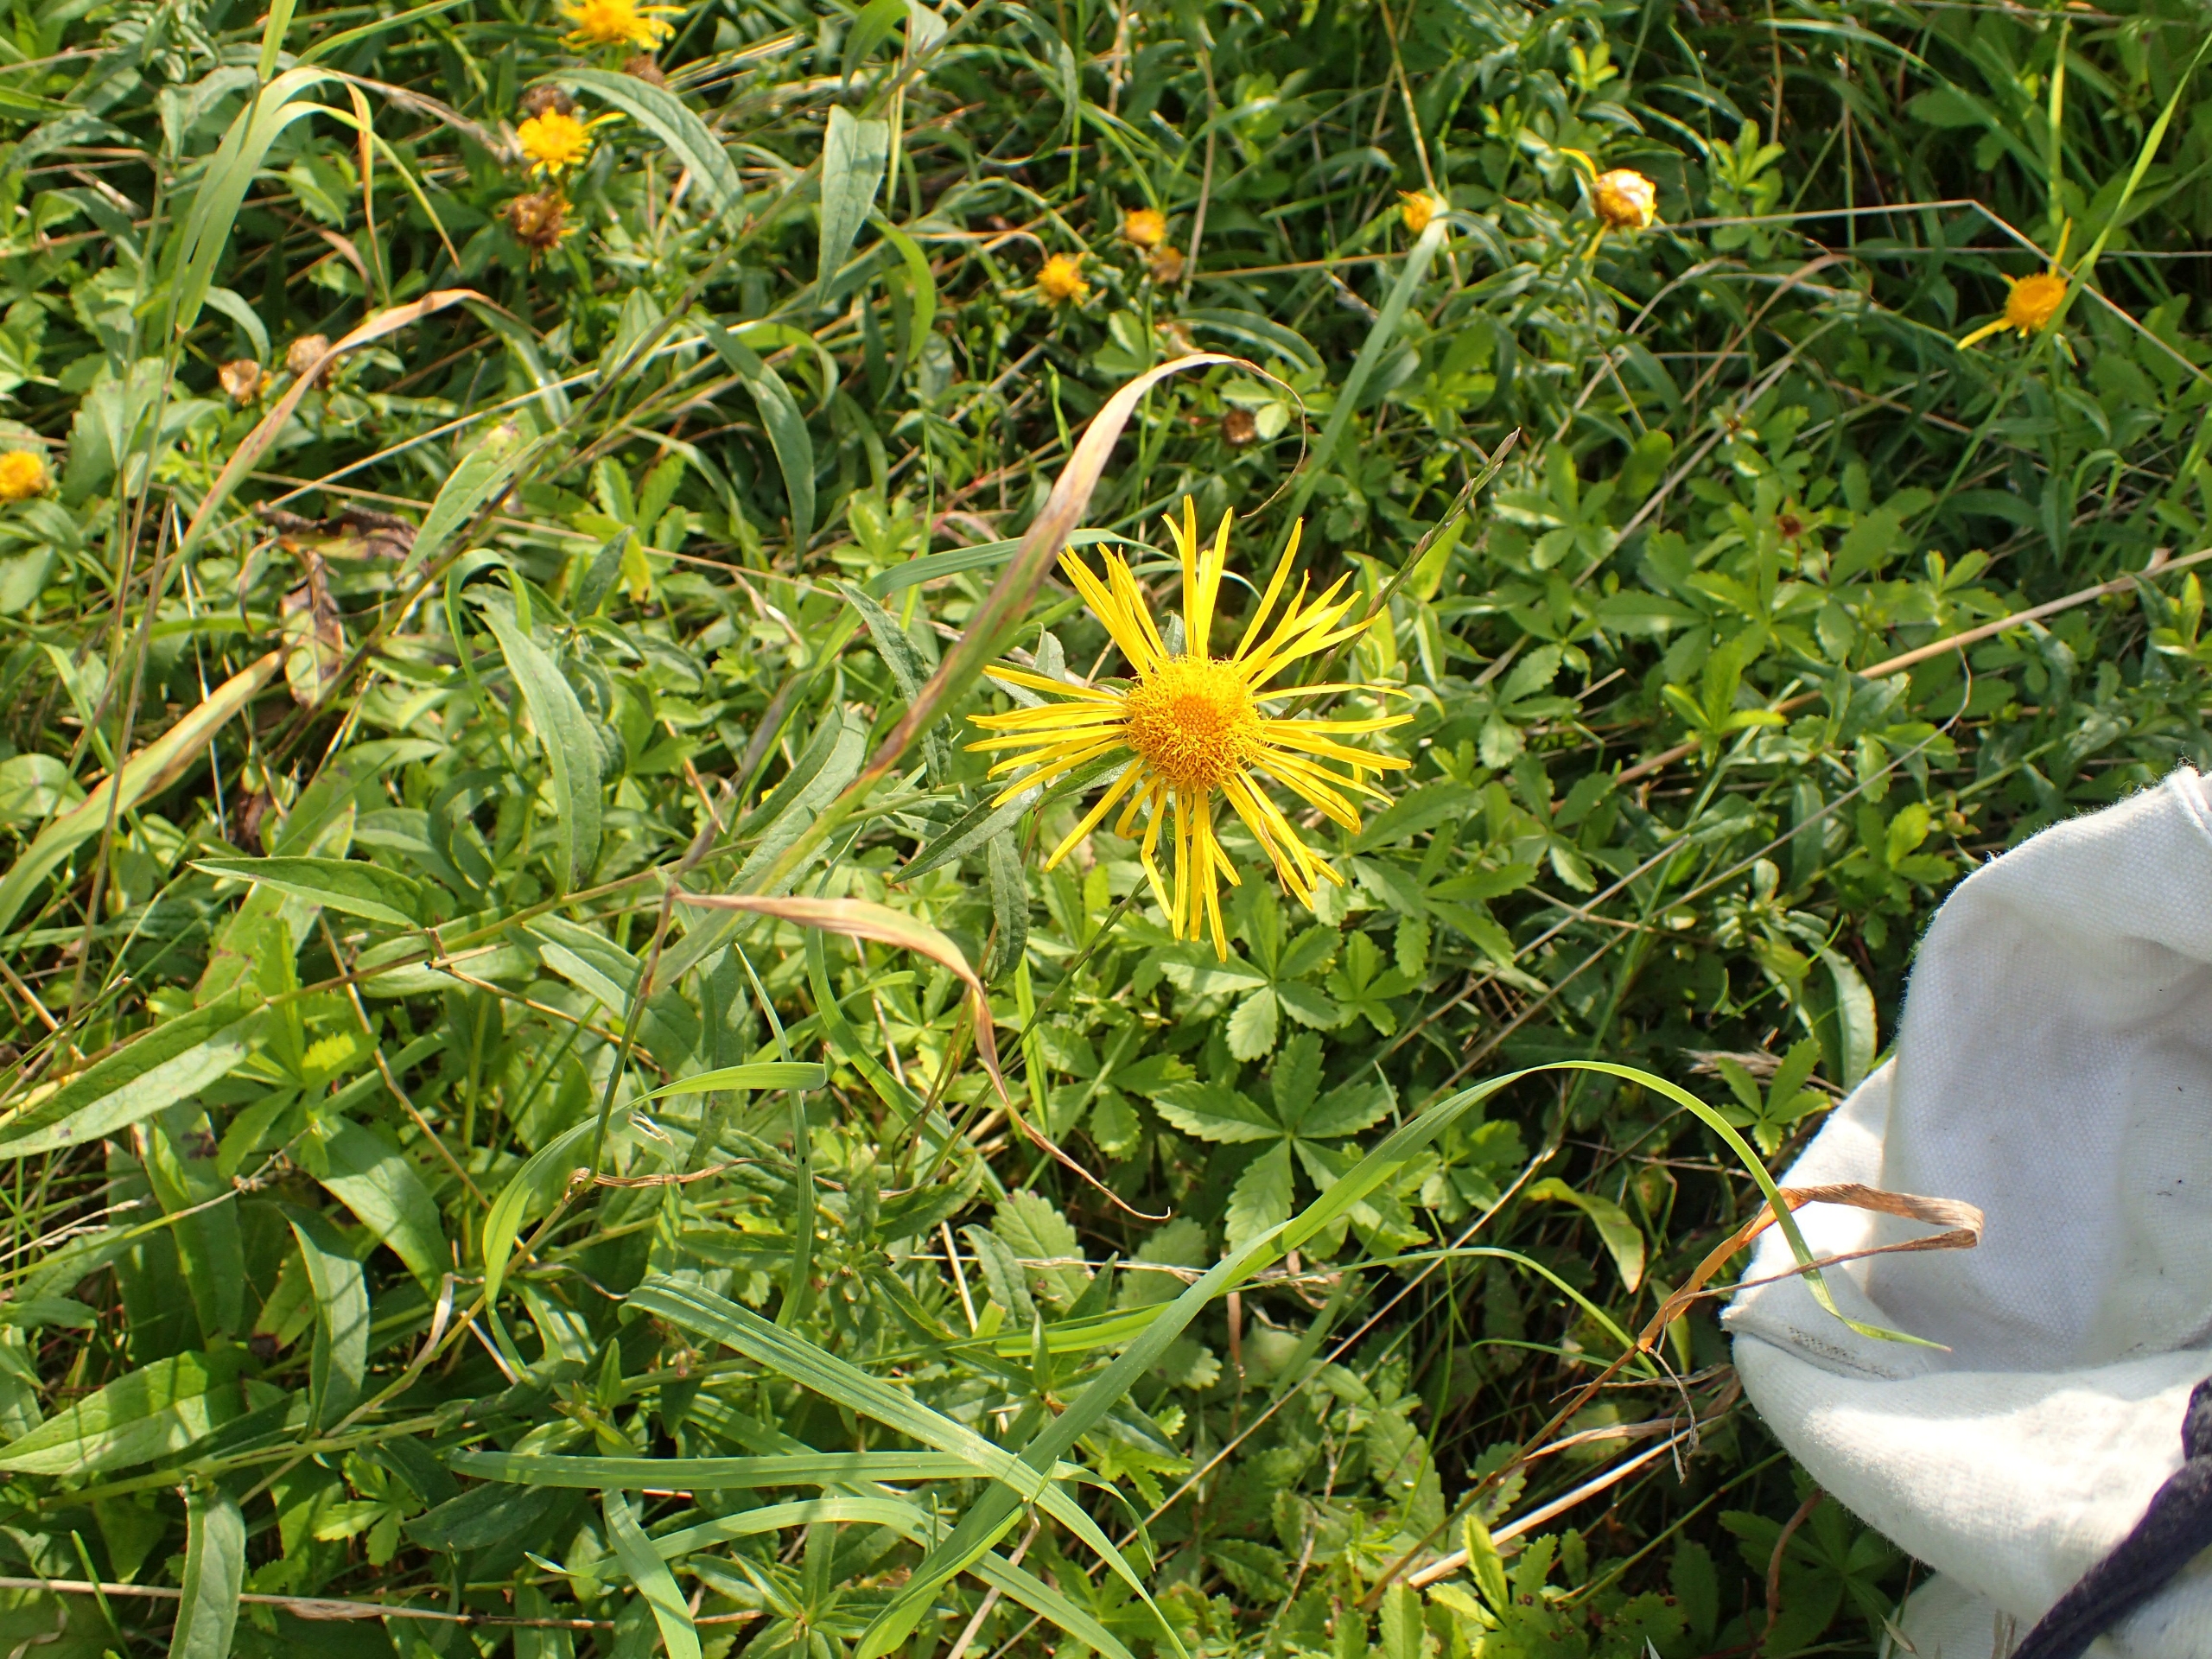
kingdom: Plantae
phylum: Tracheophyta
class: Magnoliopsida
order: Asterales
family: Asteraceae
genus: Pentanema
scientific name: Pentanema salicinum
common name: Pile-alant
